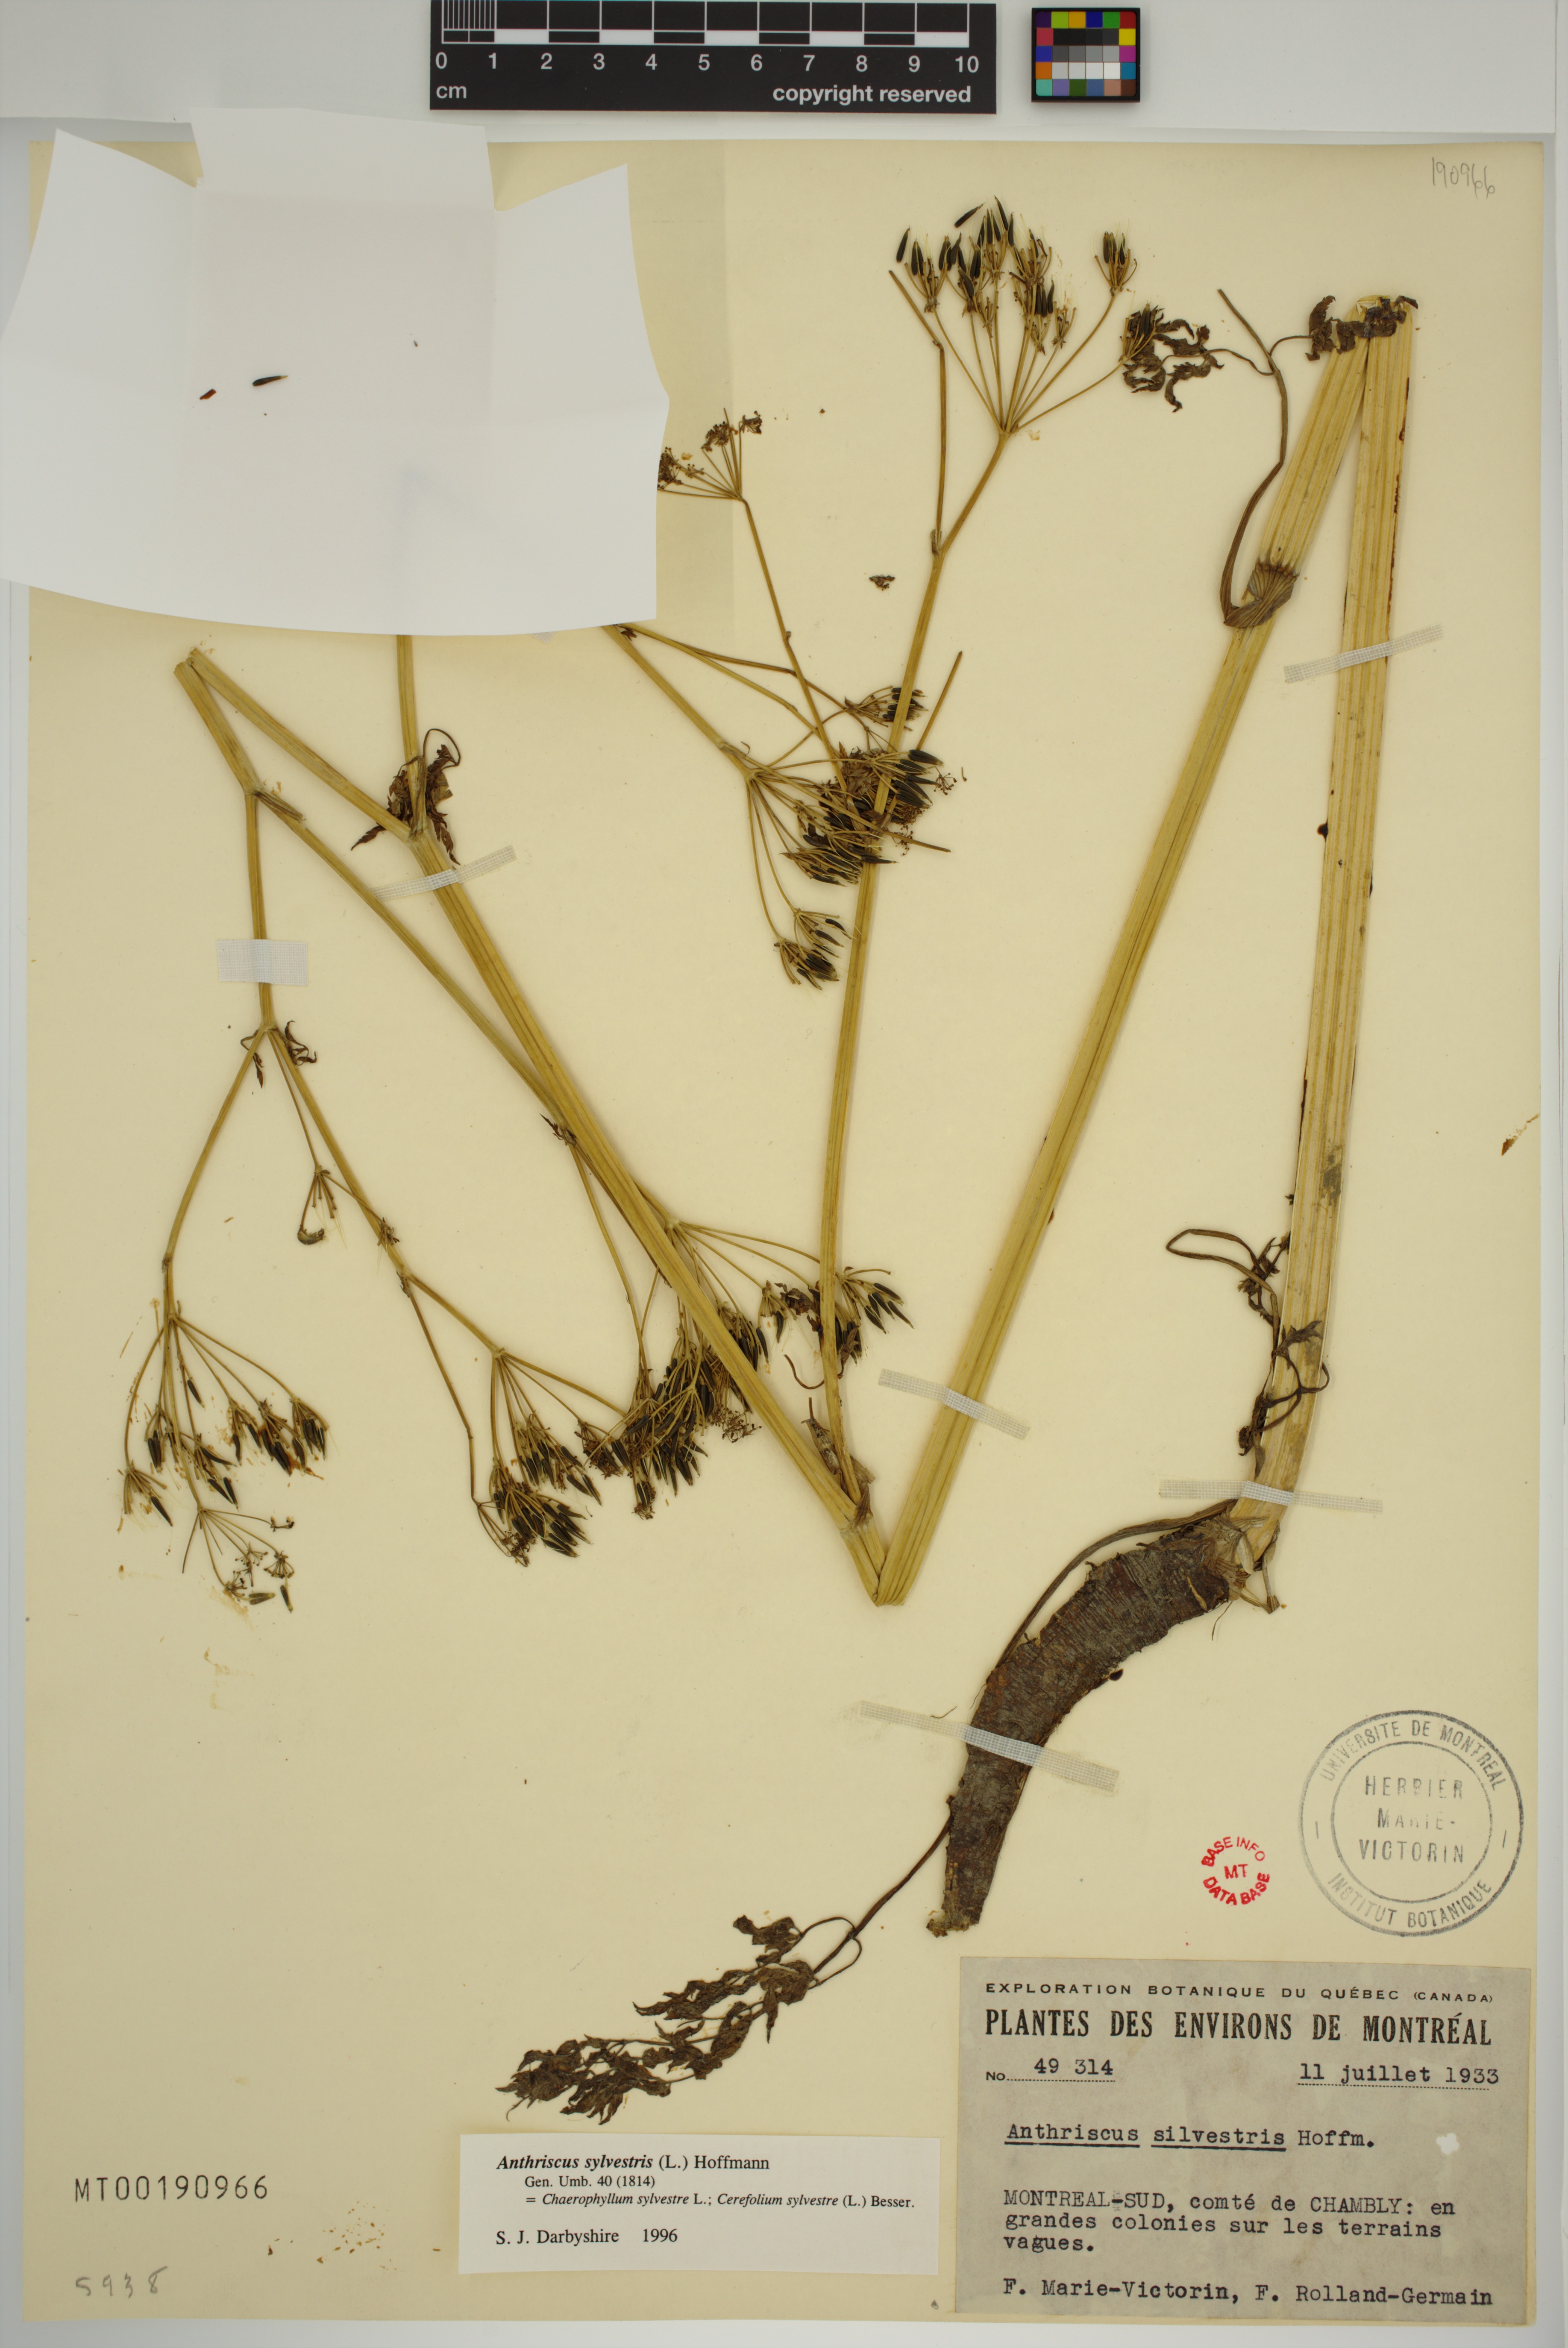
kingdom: Plantae
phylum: Tracheophyta
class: Magnoliopsida
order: Apiales
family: Apiaceae
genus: Anthriscus
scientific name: Anthriscus sylvestris
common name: Cow parsley
